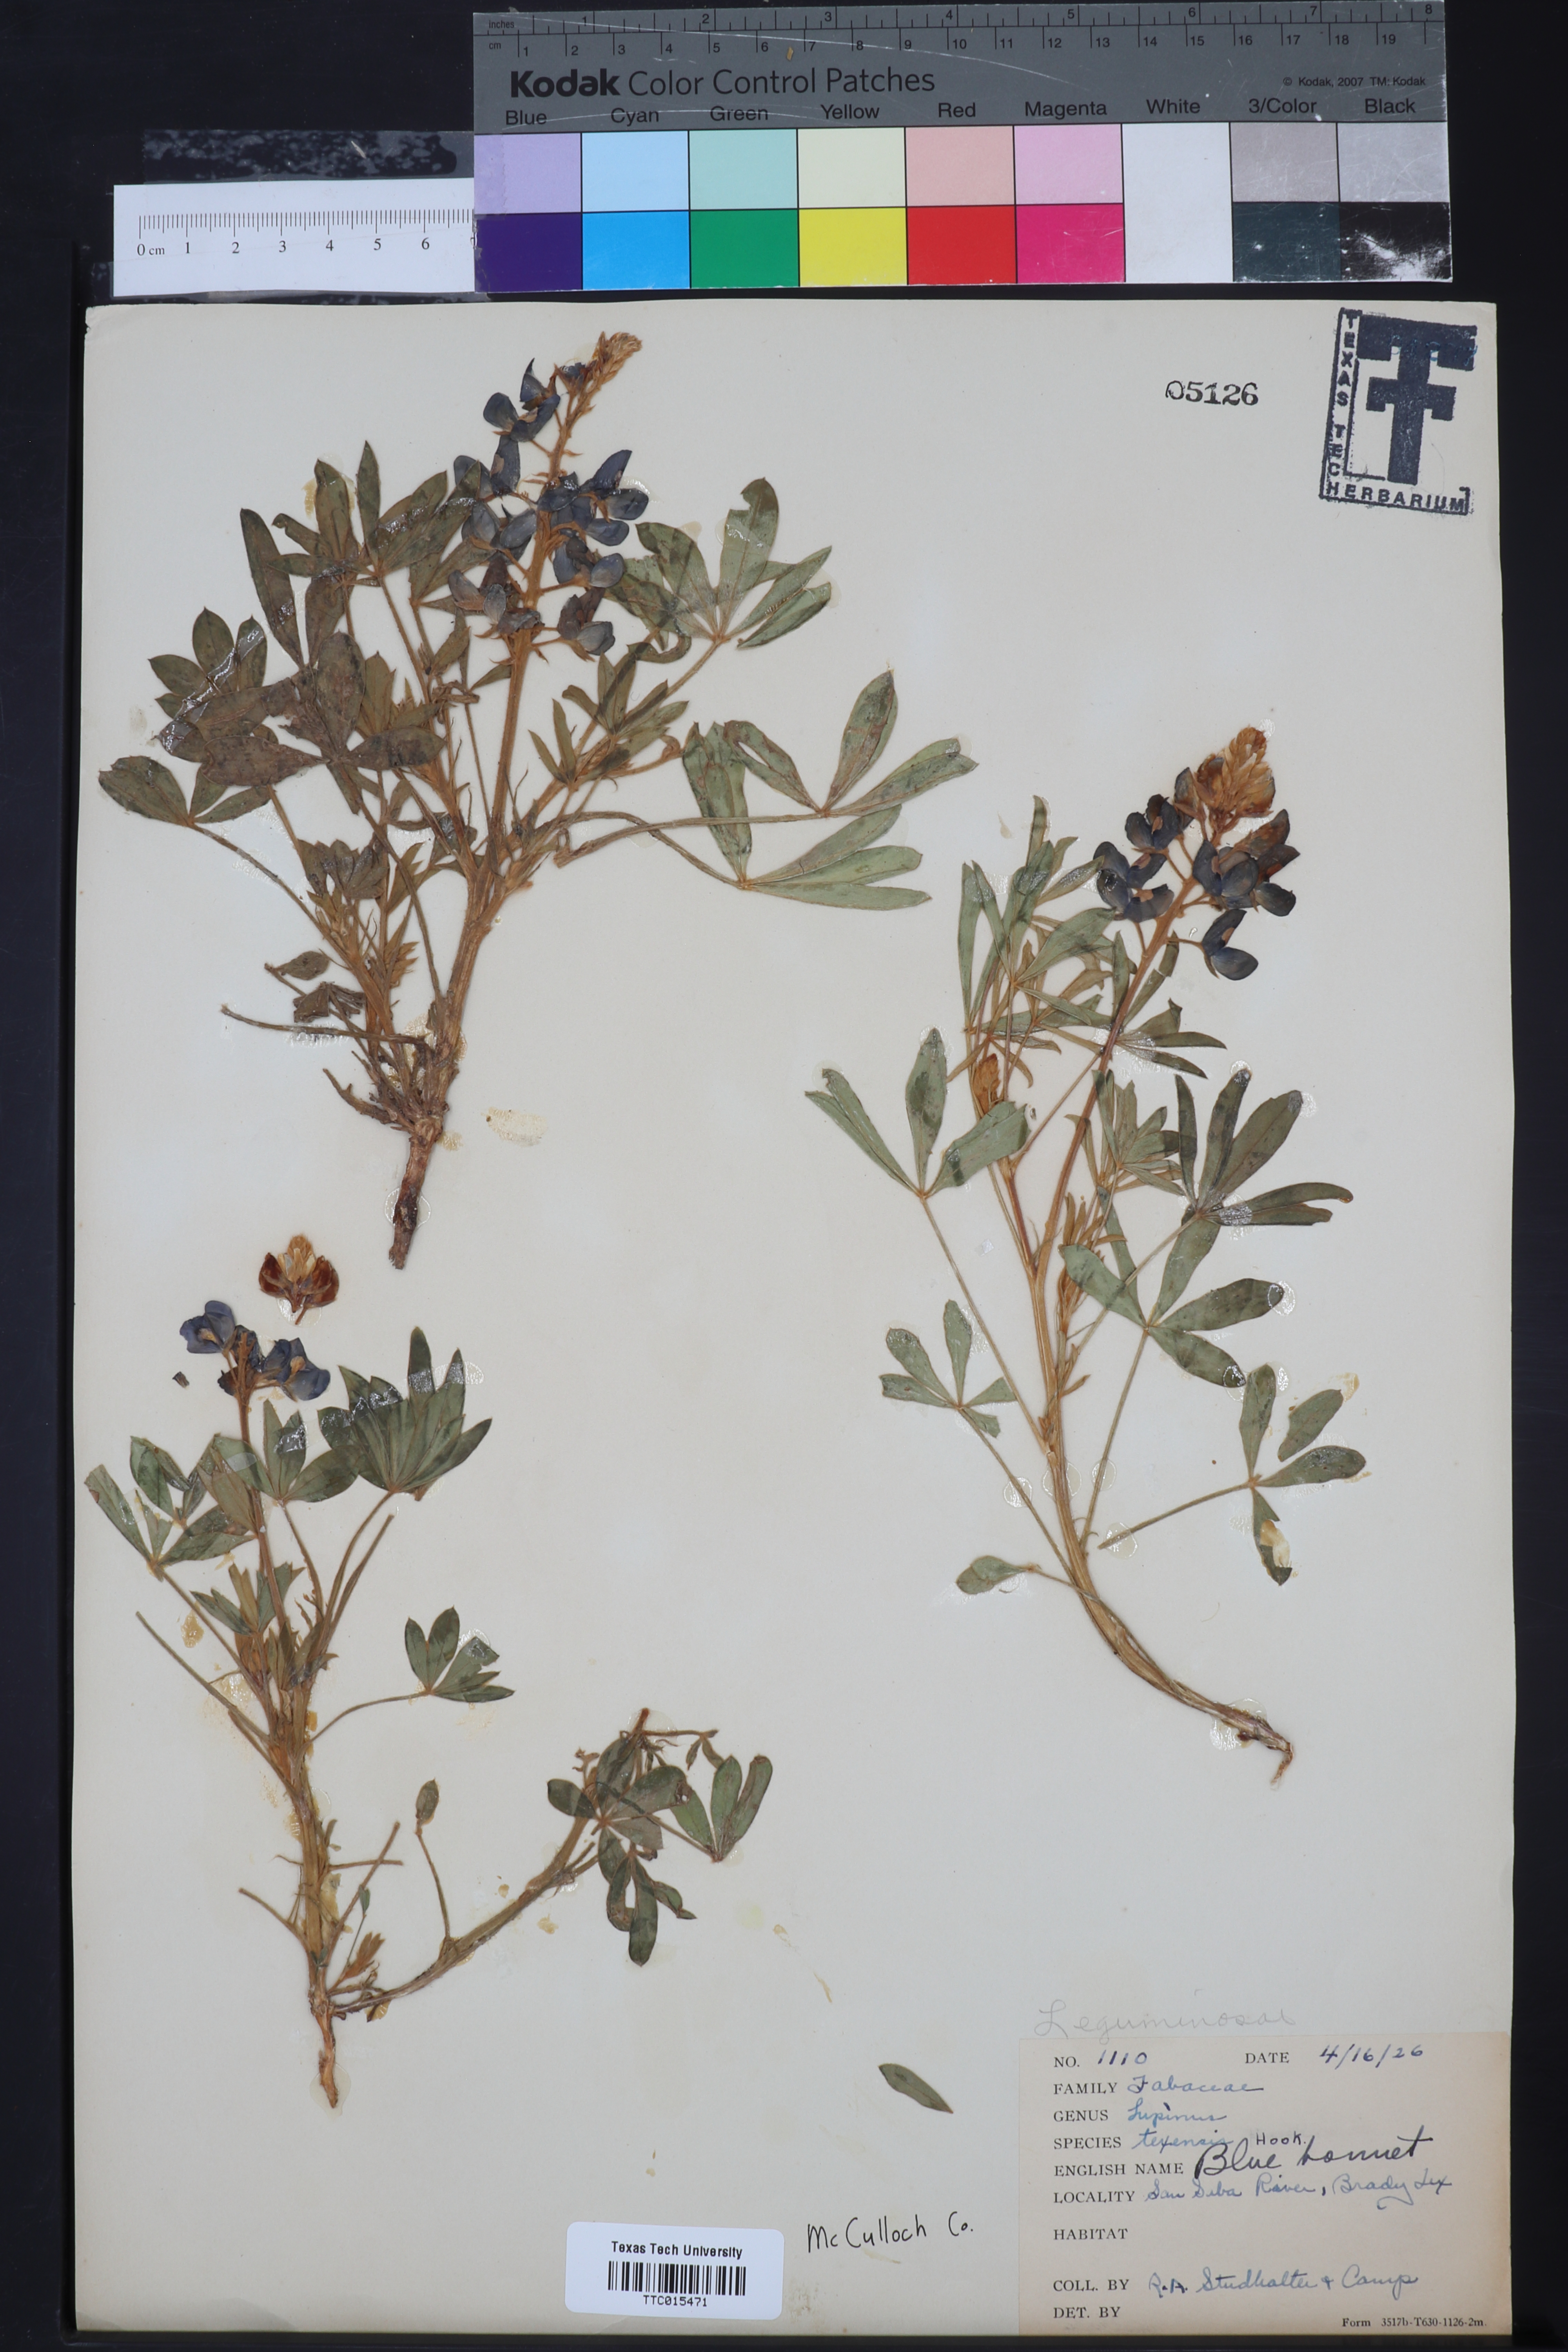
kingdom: Plantae
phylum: Tracheophyta
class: Magnoliopsida
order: Fabales
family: Fabaceae
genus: Lupinus
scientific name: Lupinus texensis
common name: Texas bluebonnet
